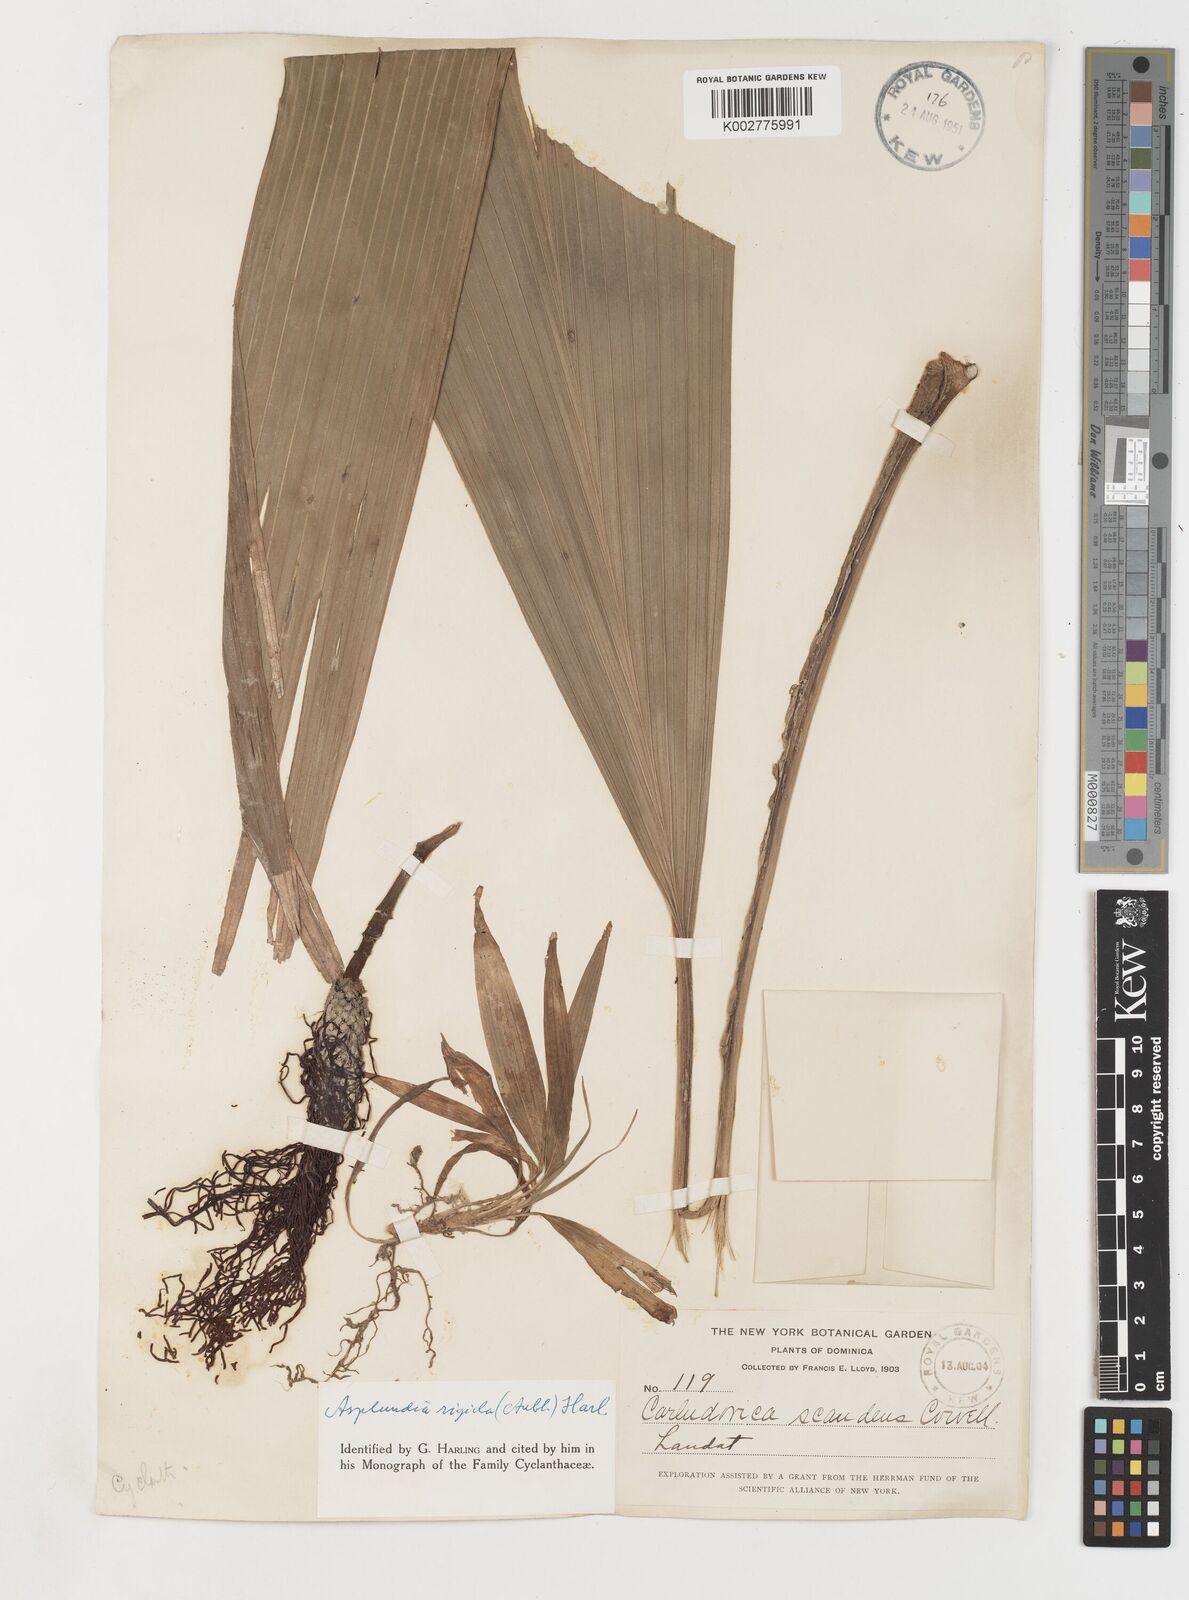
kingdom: Plantae
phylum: Tracheophyta
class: Liliopsida
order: Pandanales
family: Cyclanthaceae
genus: Asplundia
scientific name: Asplundia rigida
